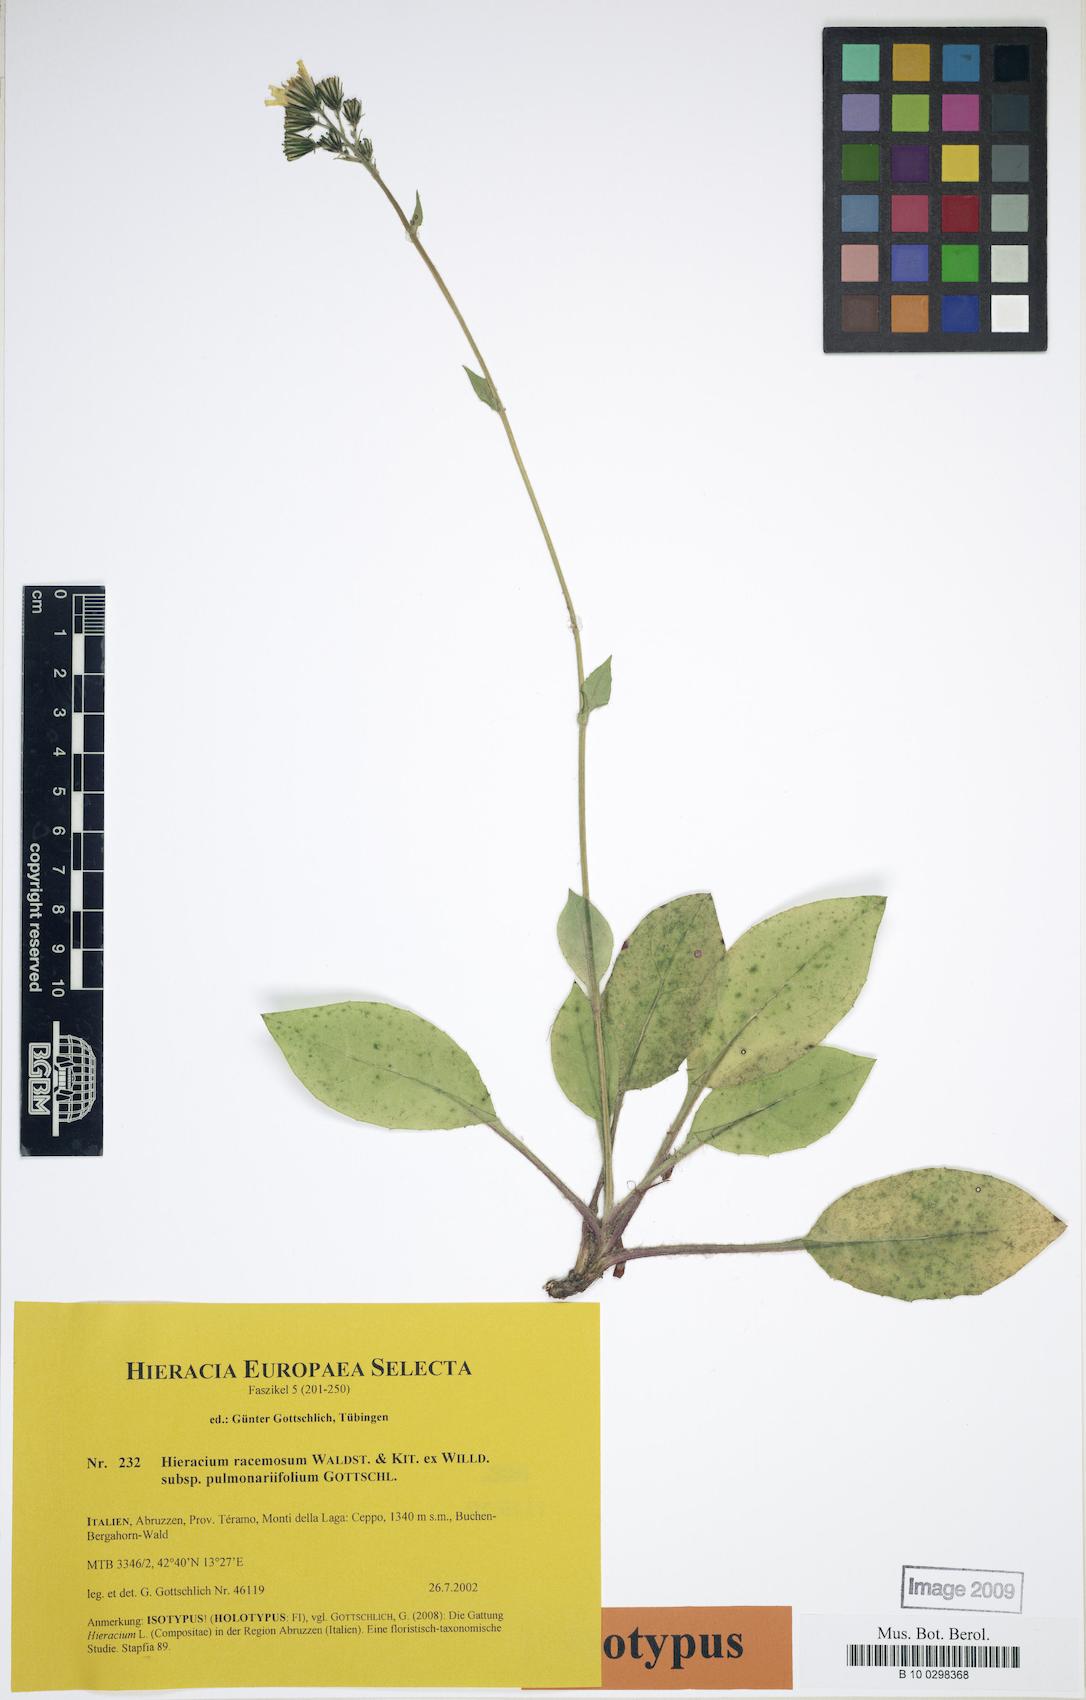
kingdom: Plantae
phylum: Tracheophyta
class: Magnoliopsida
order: Asterales
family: Asteraceae
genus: Hieracium
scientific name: Hieracium racemosum
